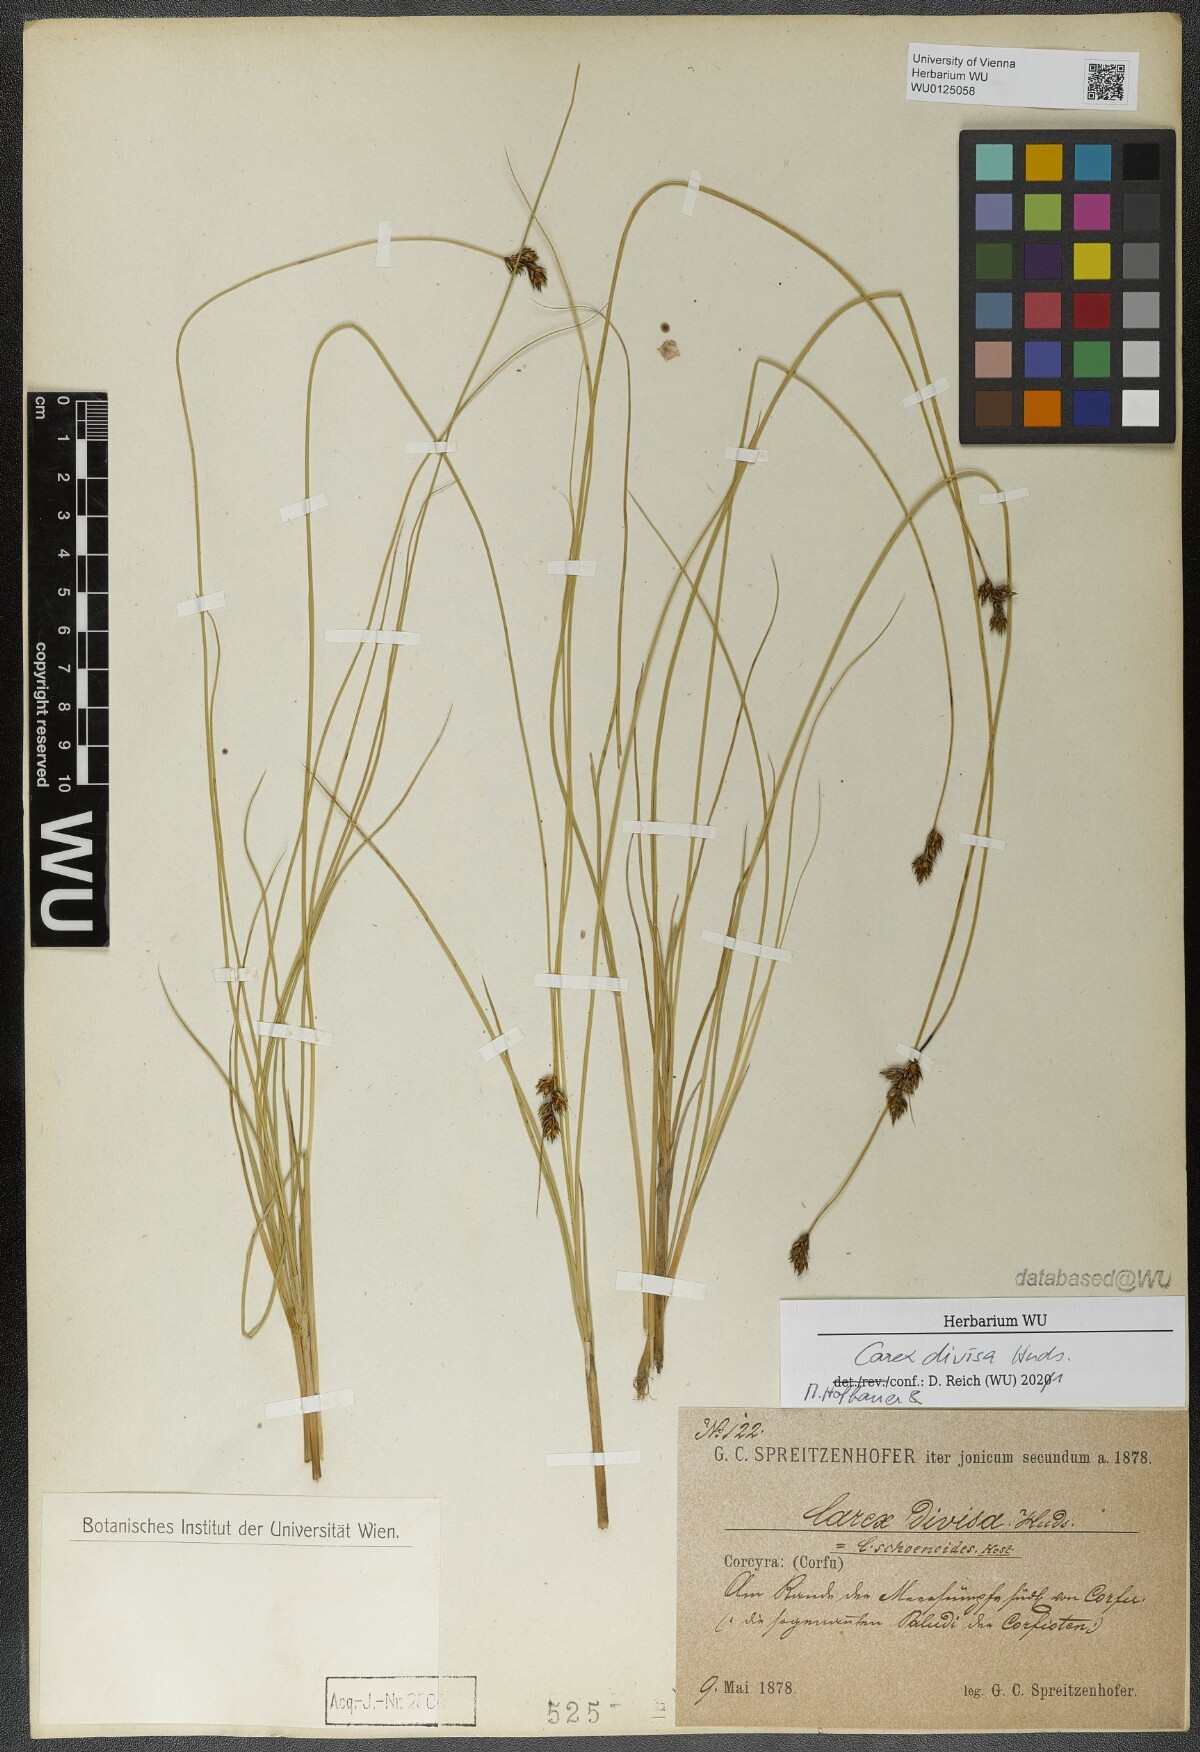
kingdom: Plantae
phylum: Tracheophyta
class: Liliopsida
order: Poales
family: Cyperaceae
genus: Carex
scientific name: Carex divisa
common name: Divided sedge
